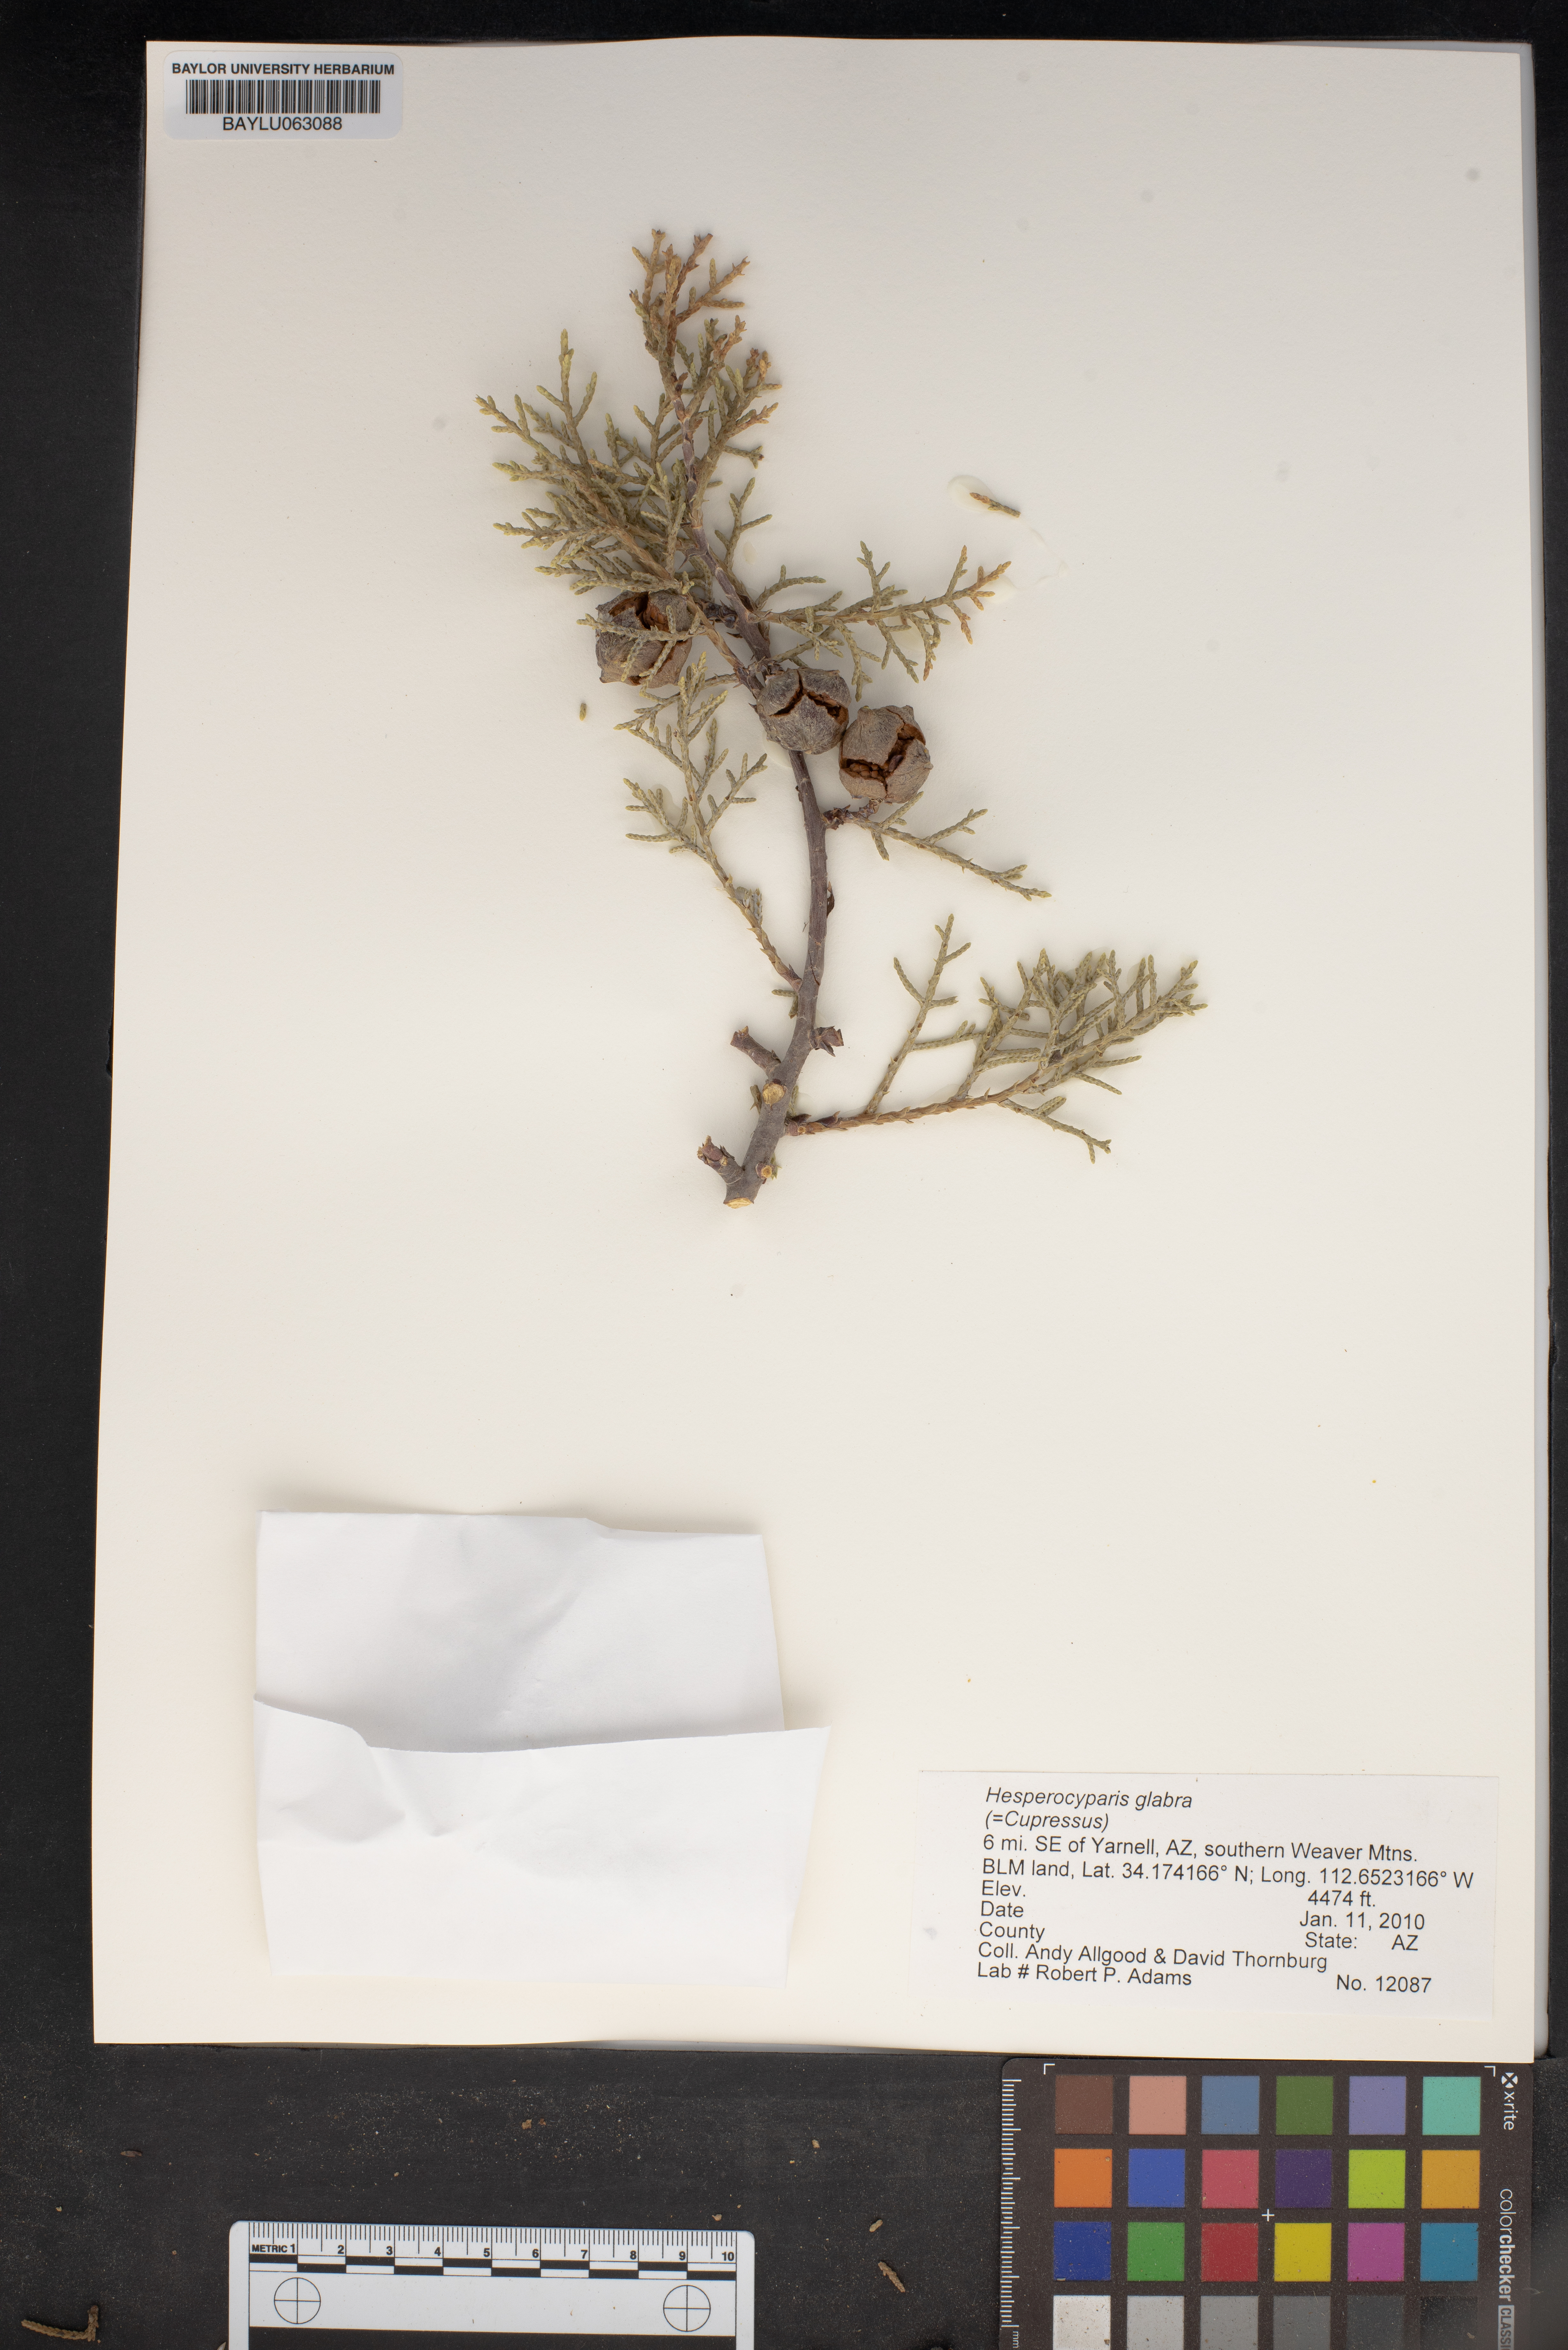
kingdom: Plantae
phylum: Tracheophyta
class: Pinopsida
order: Pinales
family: Cupressaceae
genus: Cupressus
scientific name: Cupressus arizonica
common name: Arizona cypress
